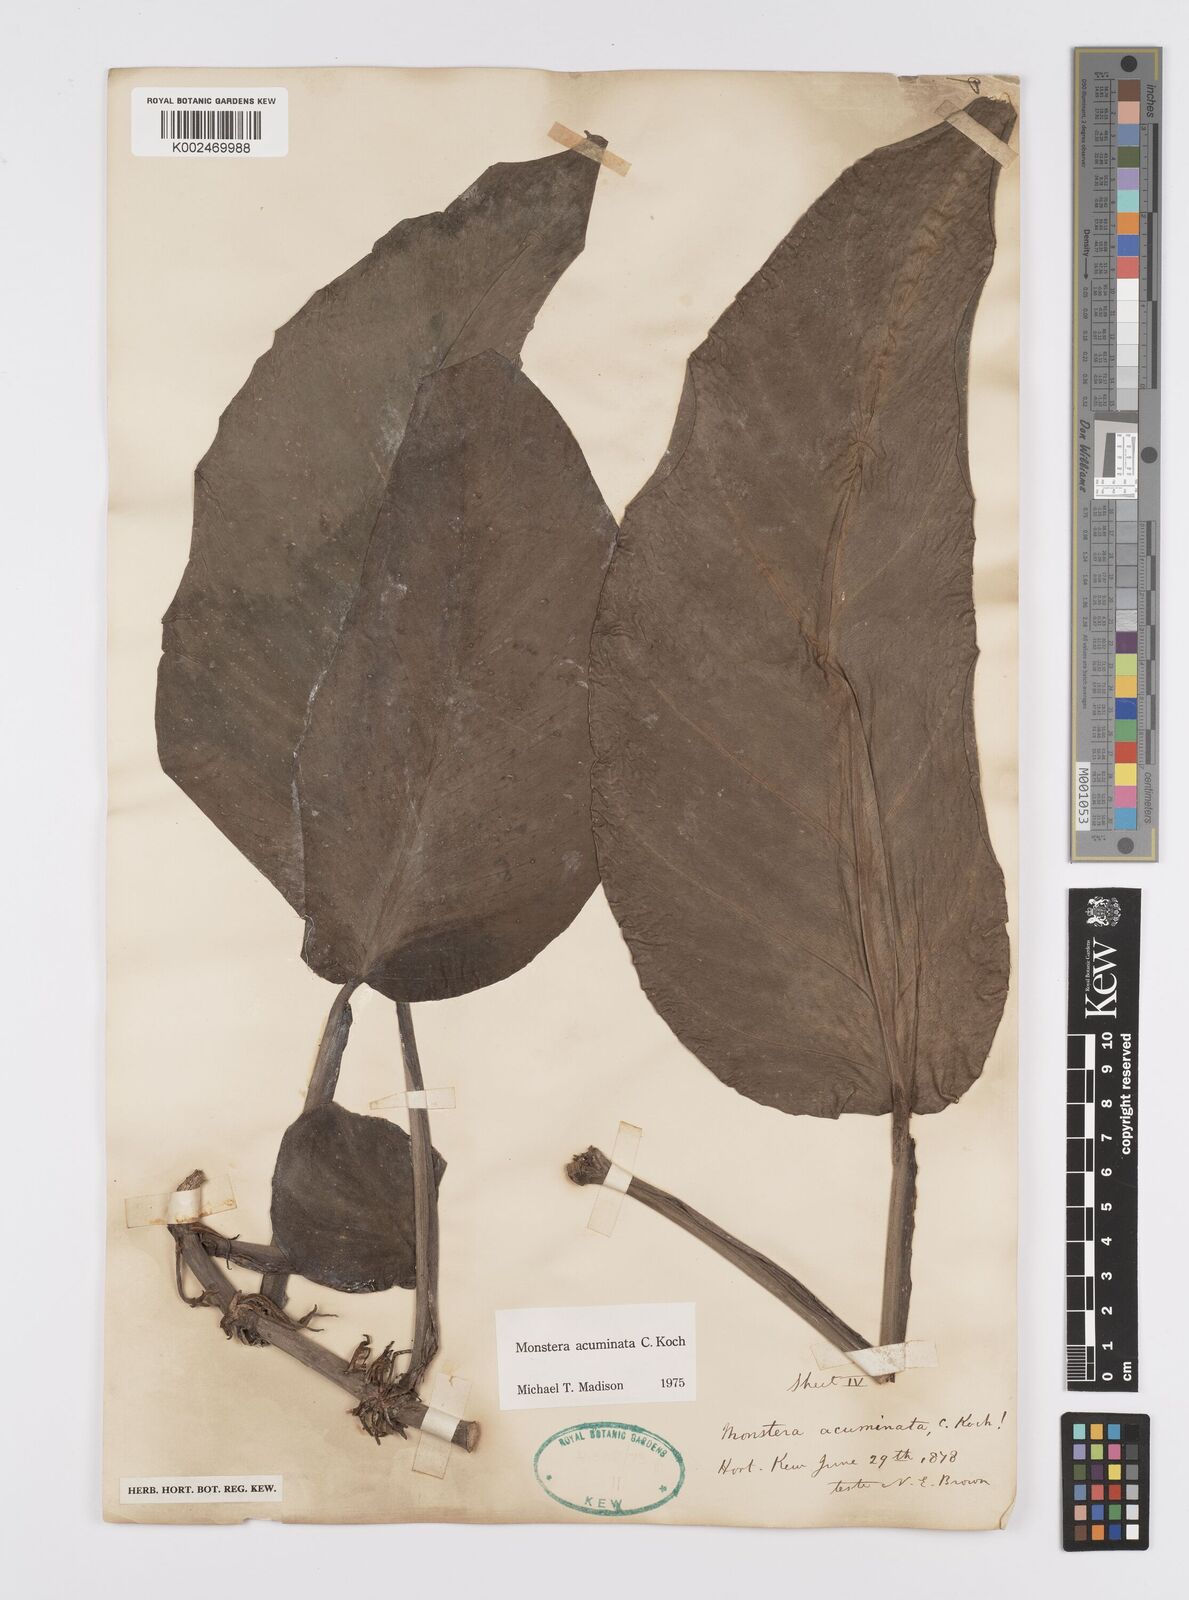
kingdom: Plantae
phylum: Tracheophyta
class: Liliopsida
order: Alismatales
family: Araceae
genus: Monstera
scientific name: Monstera acuminata
